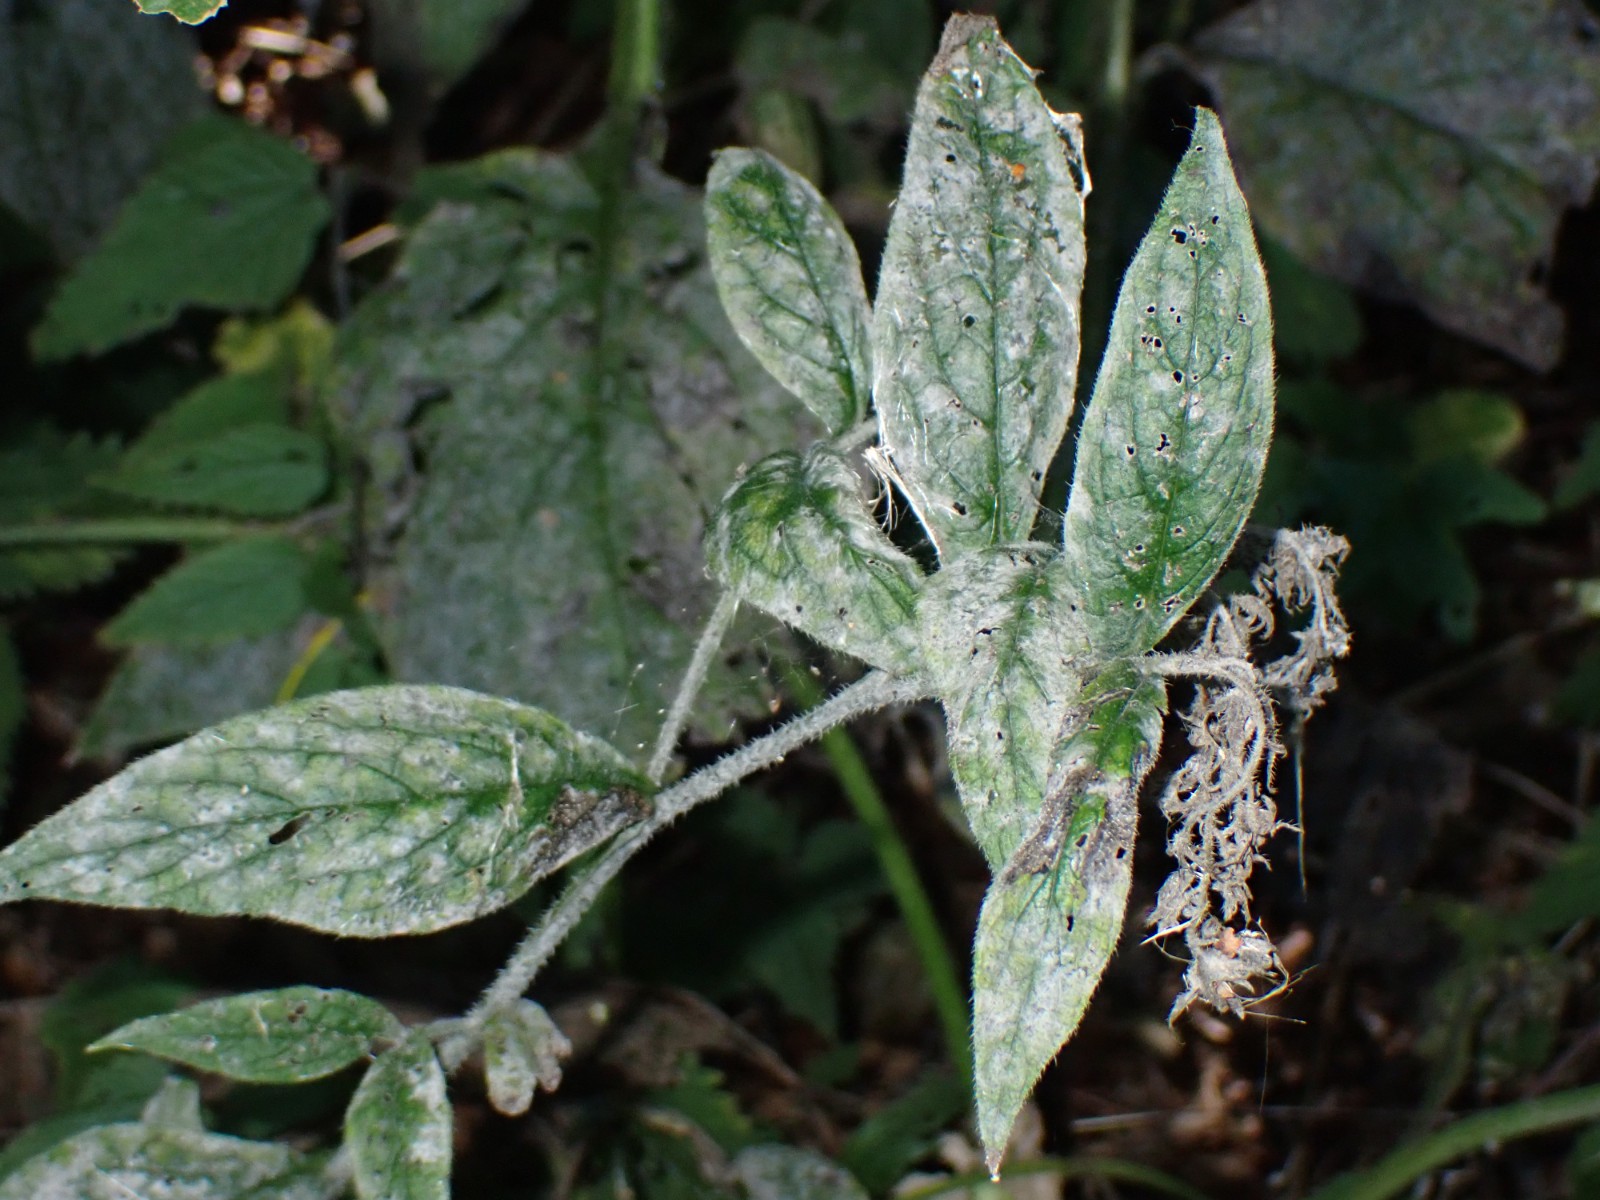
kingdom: Fungi
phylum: Ascomycota
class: Leotiomycetes
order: Helotiales
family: Erysiphaceae
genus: Golovinomyces
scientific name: Golovinomyces asperifoliorum
